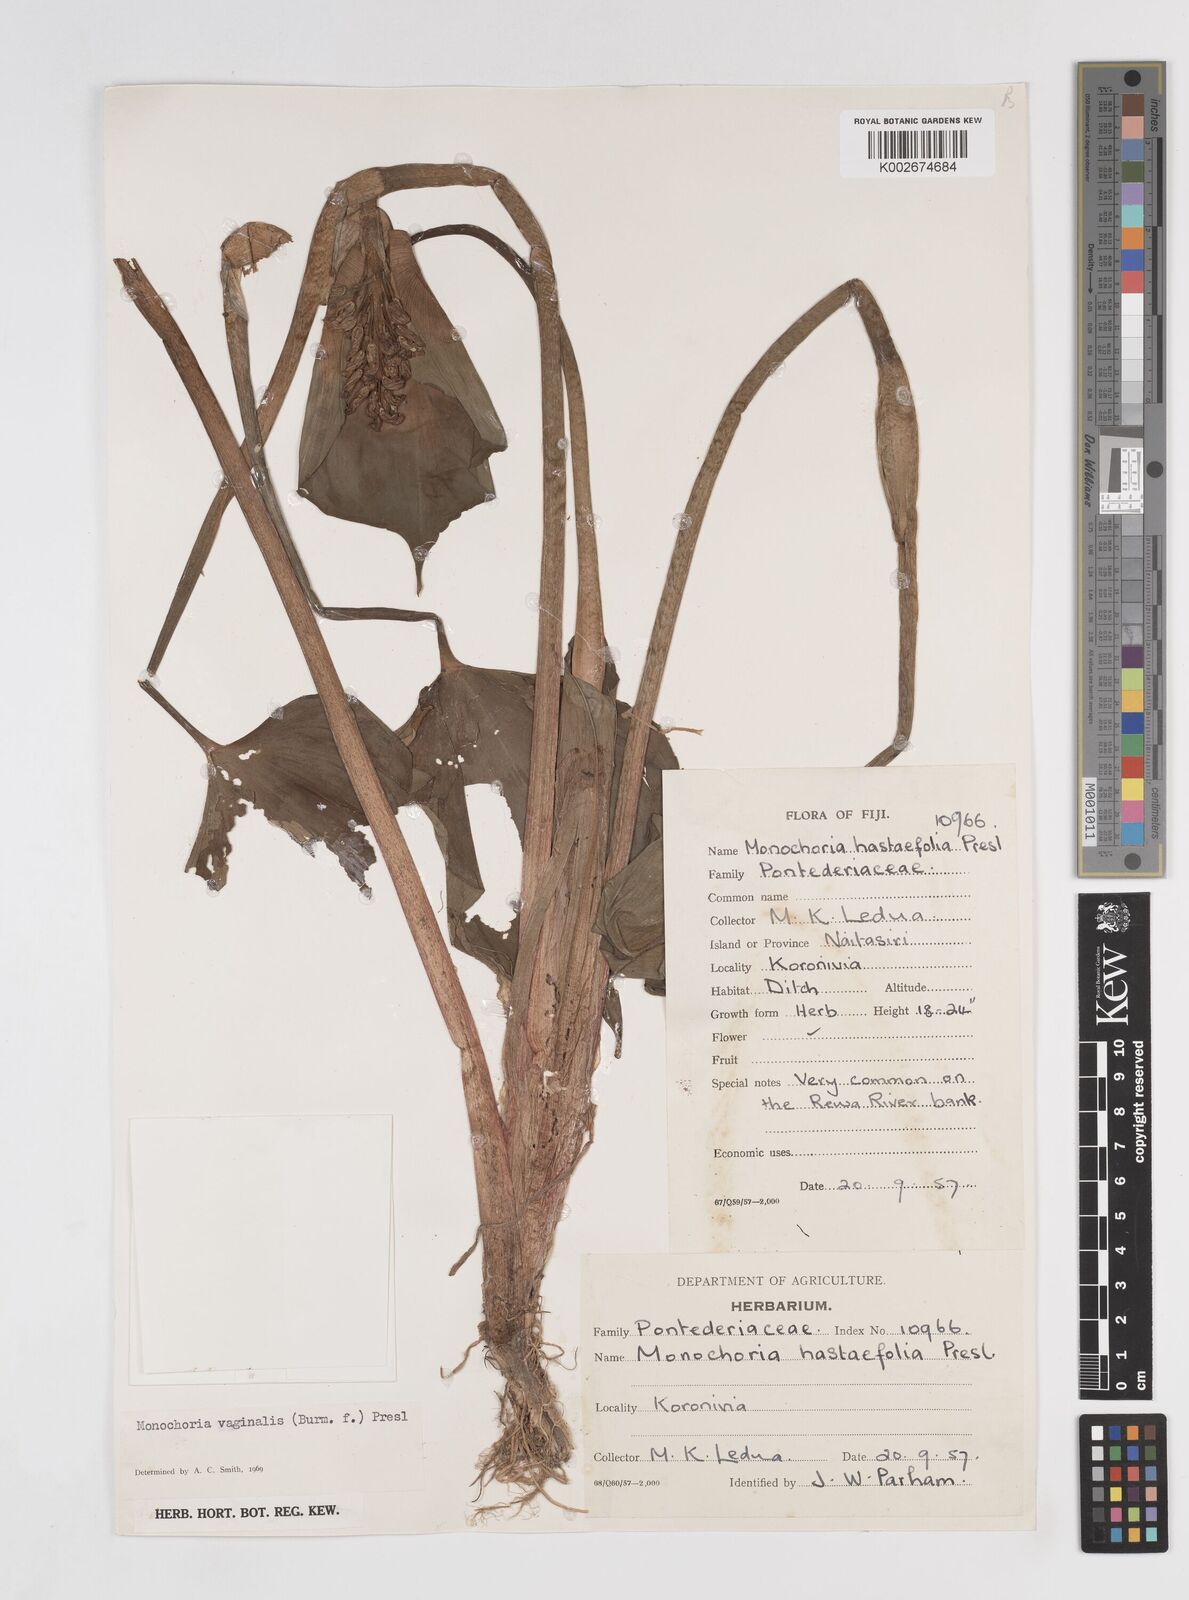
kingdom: Plantae
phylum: Tracheophyta
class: Liliopsida
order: Commelinales
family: Pontederiaceae
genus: Pontederia
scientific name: Pontederia vaginalis
